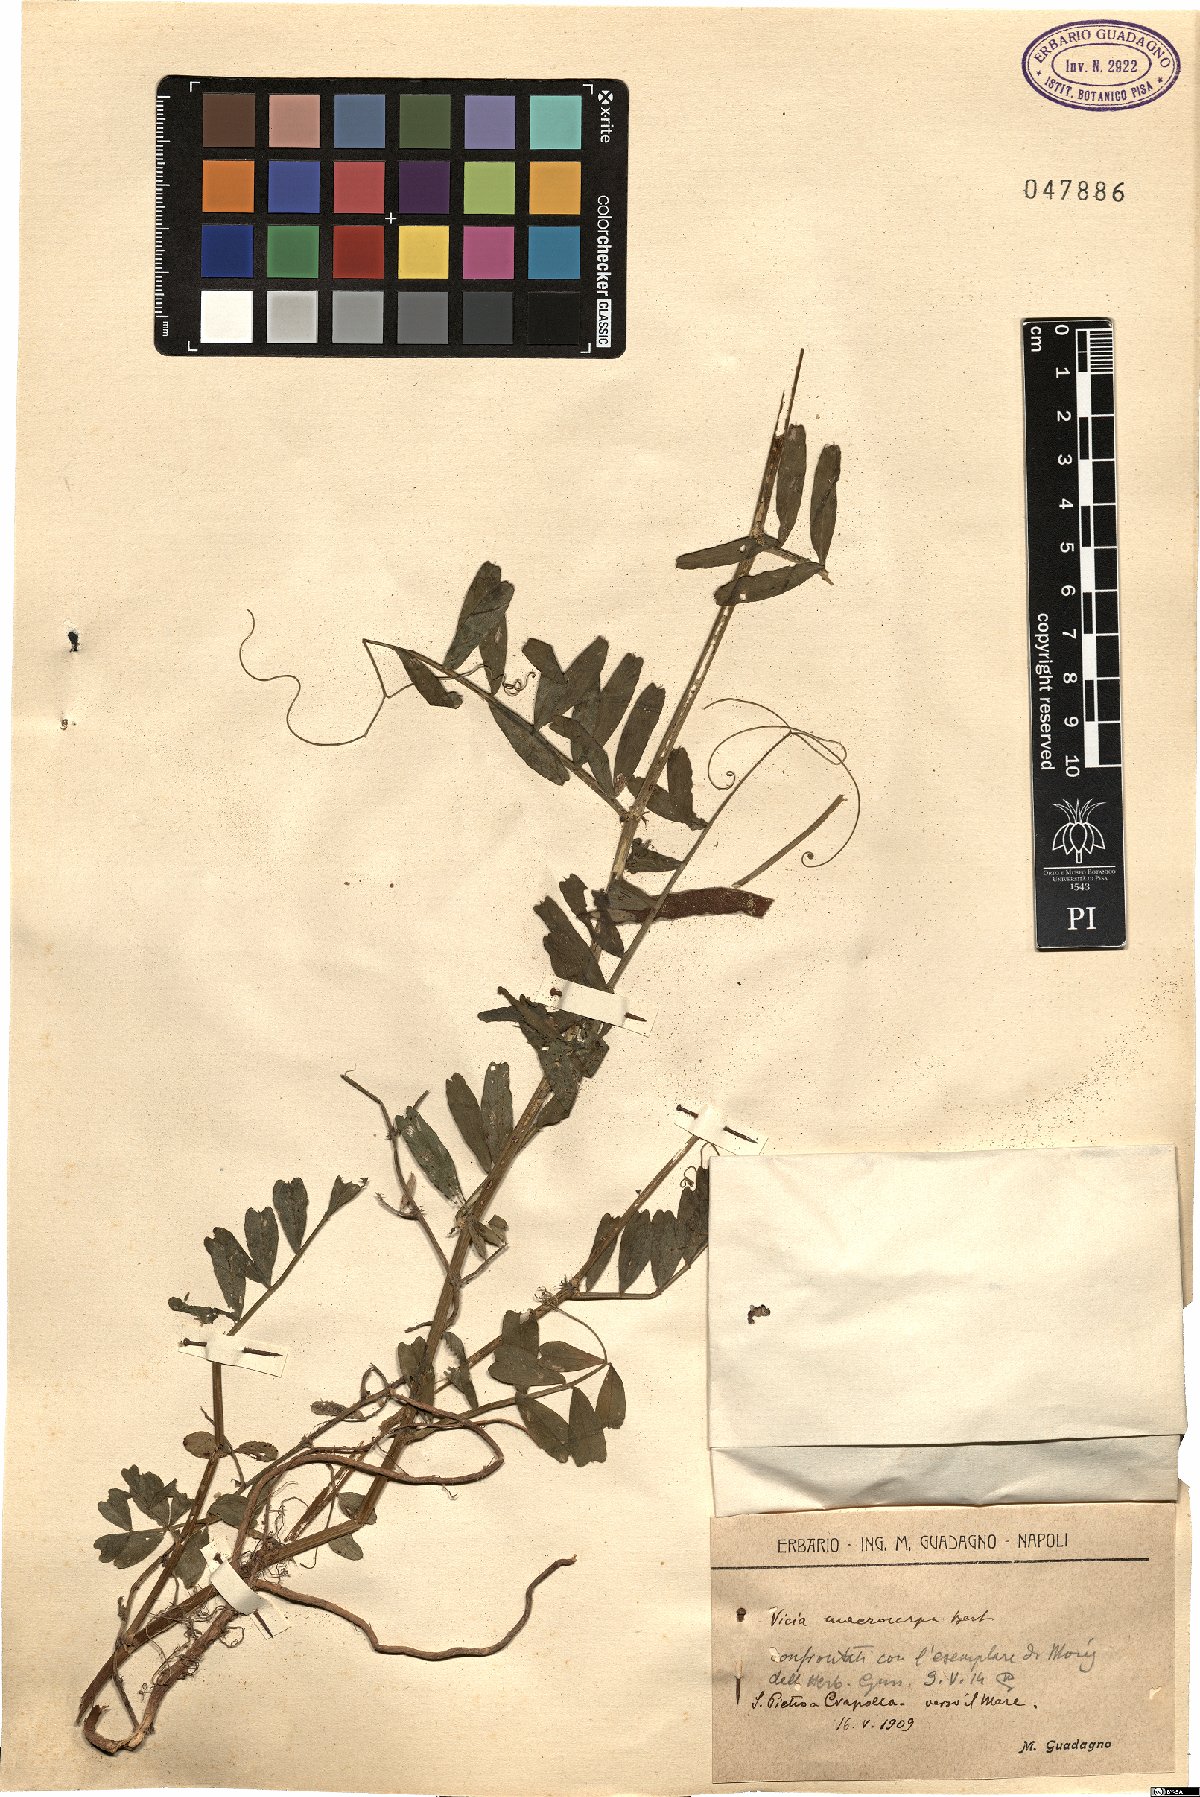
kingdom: Plantae
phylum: Tracheophyta
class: Magnoliopsida
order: Fabales
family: Fabaceae
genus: Vicia
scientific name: Vicia sativa
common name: Garden vetch
